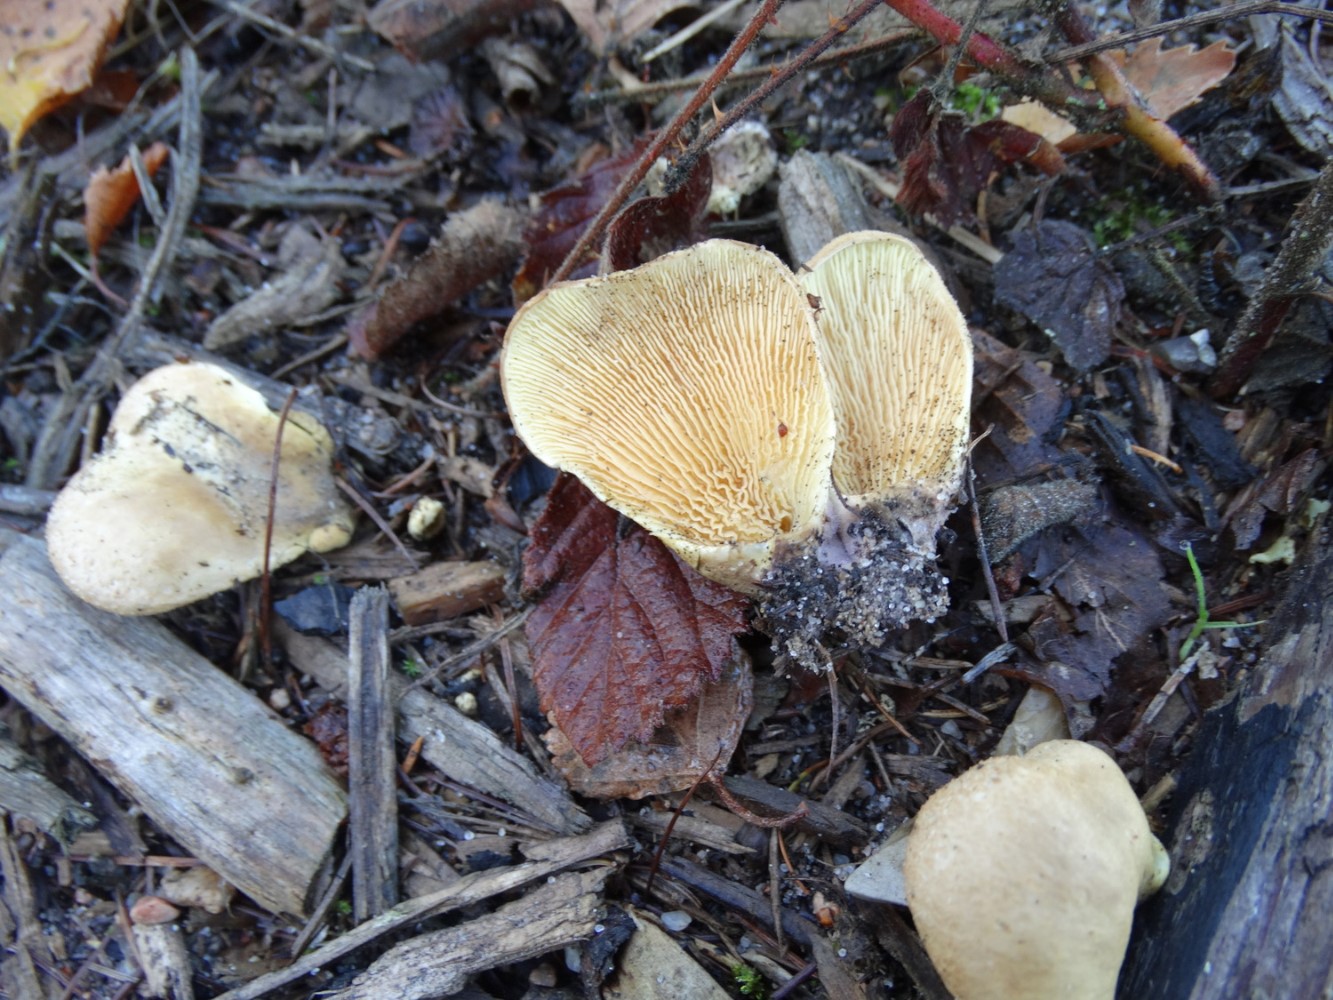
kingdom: Fungi
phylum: Basidiomycota
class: Agaricomycetes
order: Boletales
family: Tapinellaceae
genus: Tapinella
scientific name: Tapinella panuoides
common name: tømmer-viftesvamp
